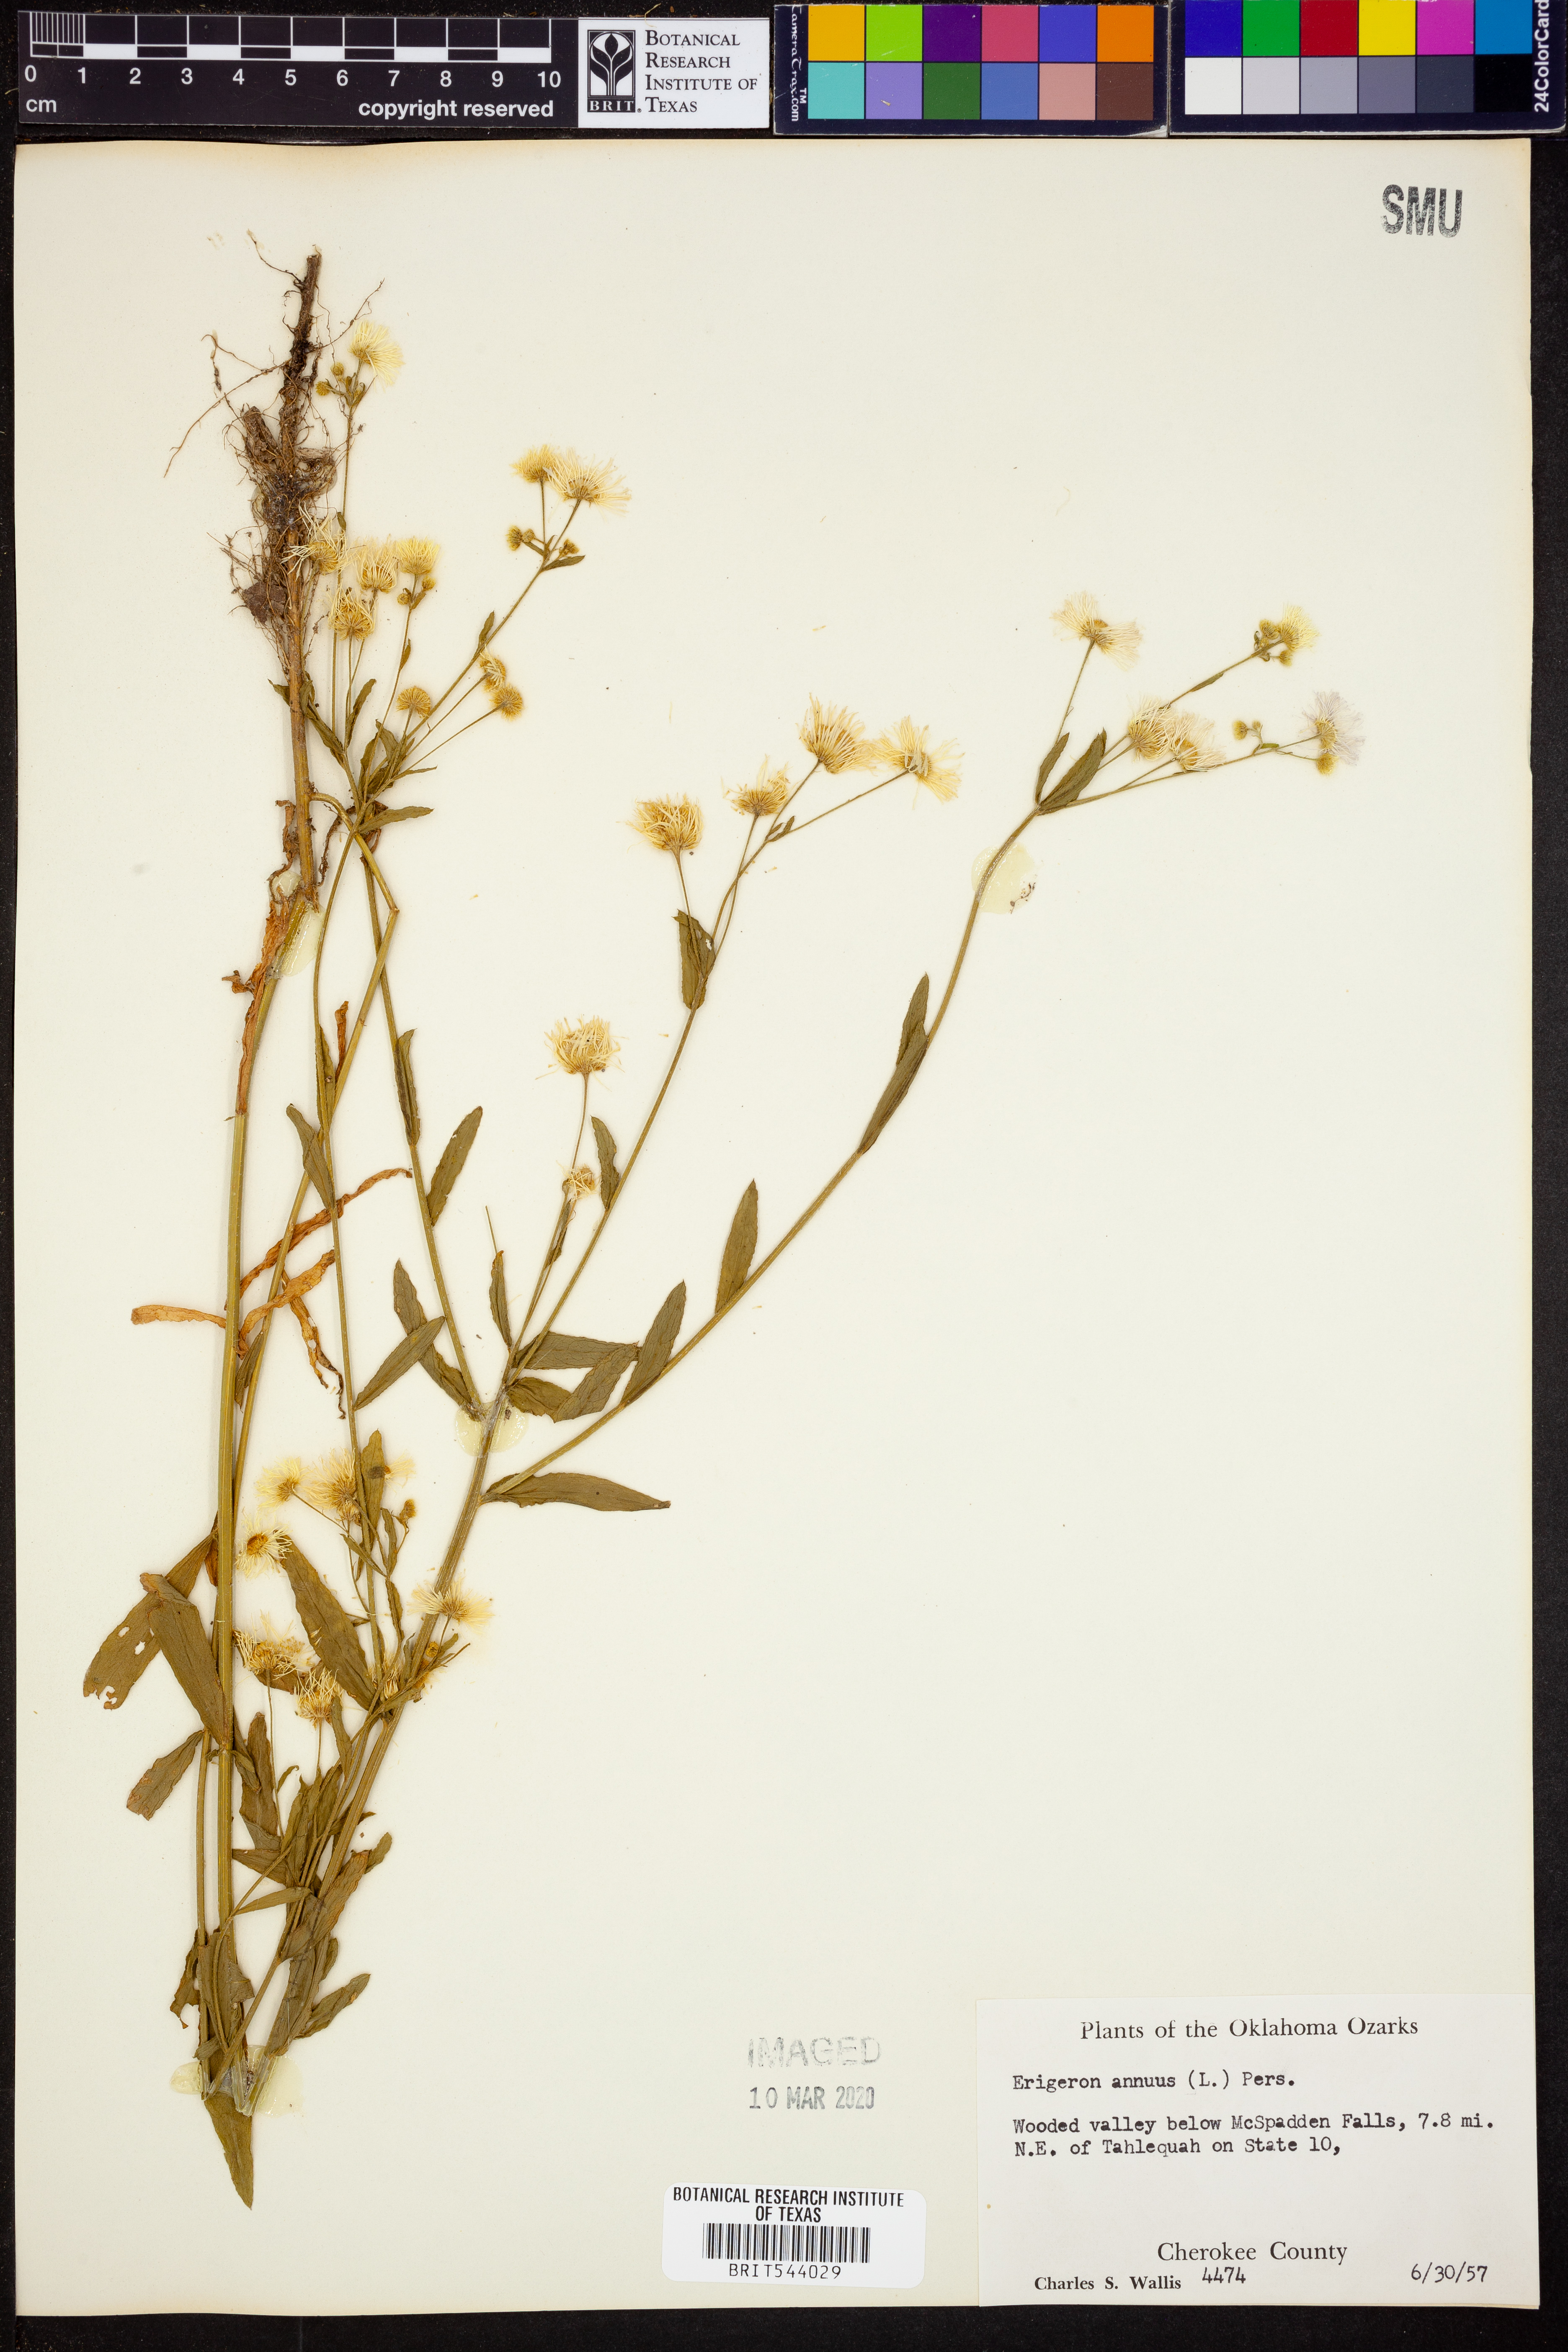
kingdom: Plantae
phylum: Tracheophyta
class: Magnoliopsida
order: Asterales
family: Asteraceae
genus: Erigeron
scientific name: Erigeron annuus
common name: Tall fleabane
